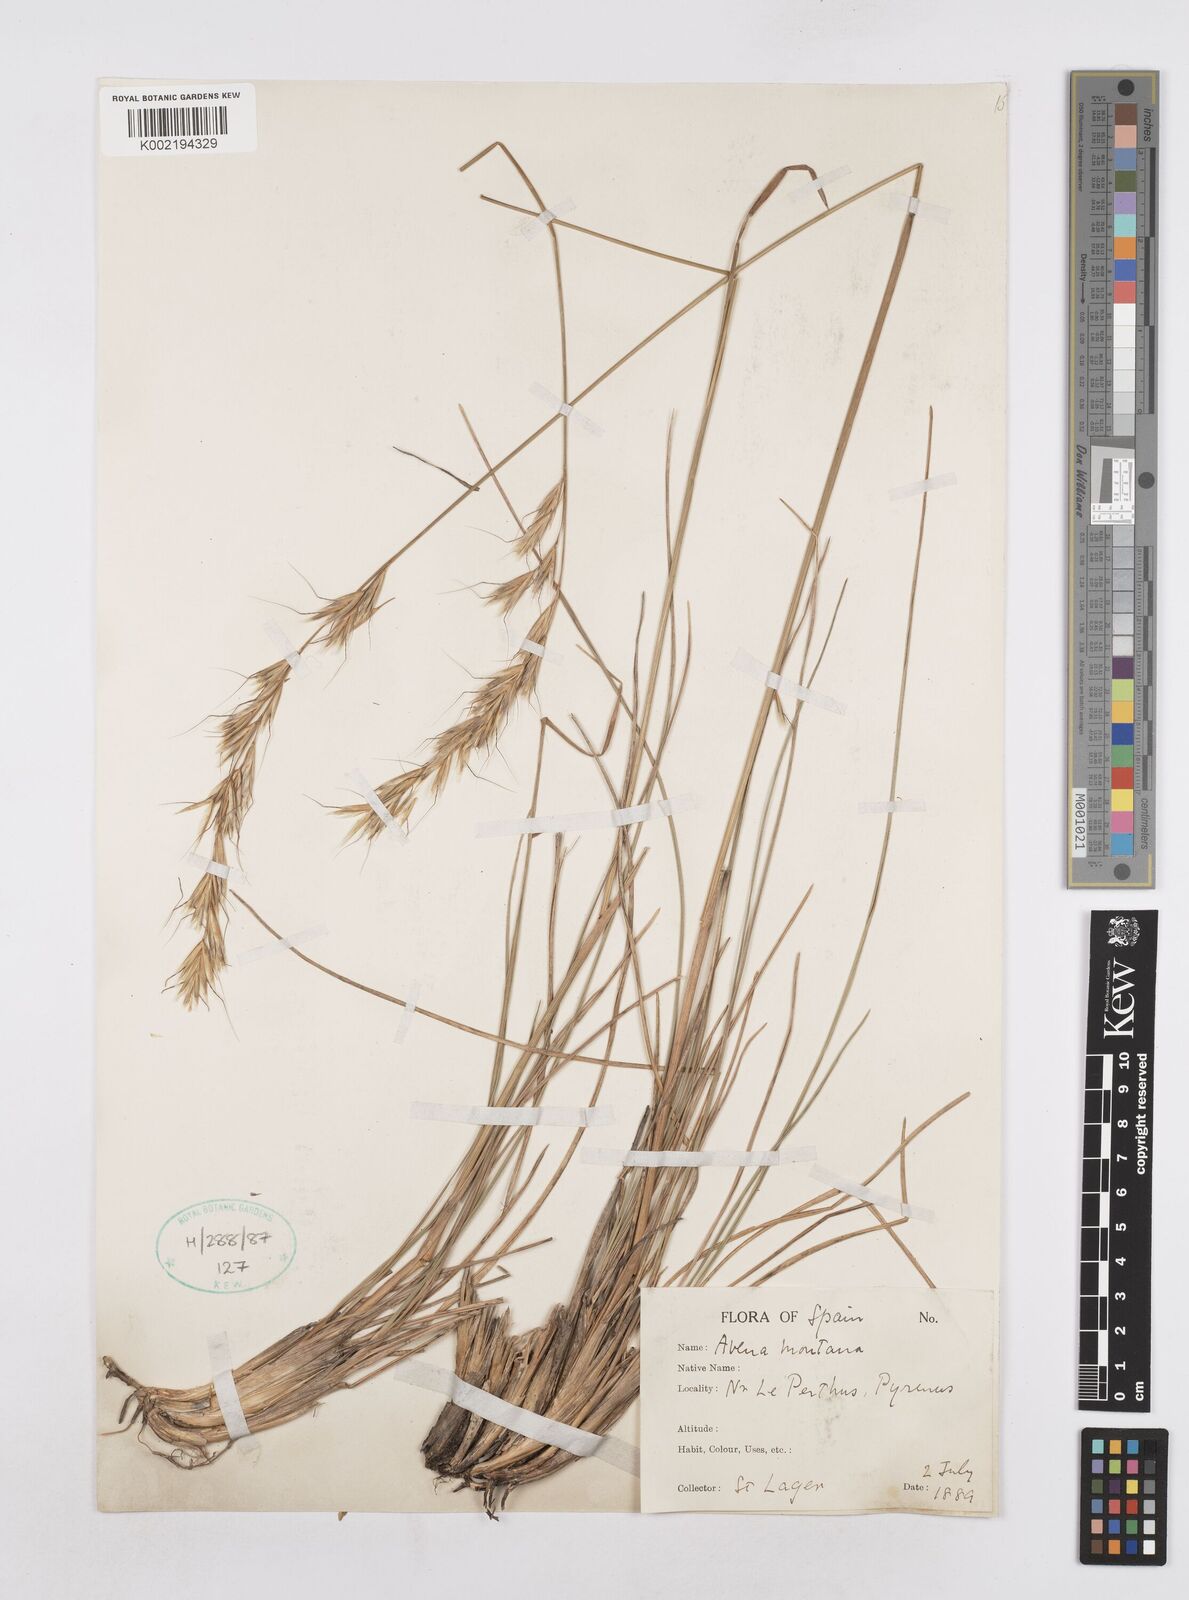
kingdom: Plantae
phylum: Tracheophyta
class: Liliopsida
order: Poales
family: Poaceae
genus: Helictotrichon
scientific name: Helictotrichon sedenense
